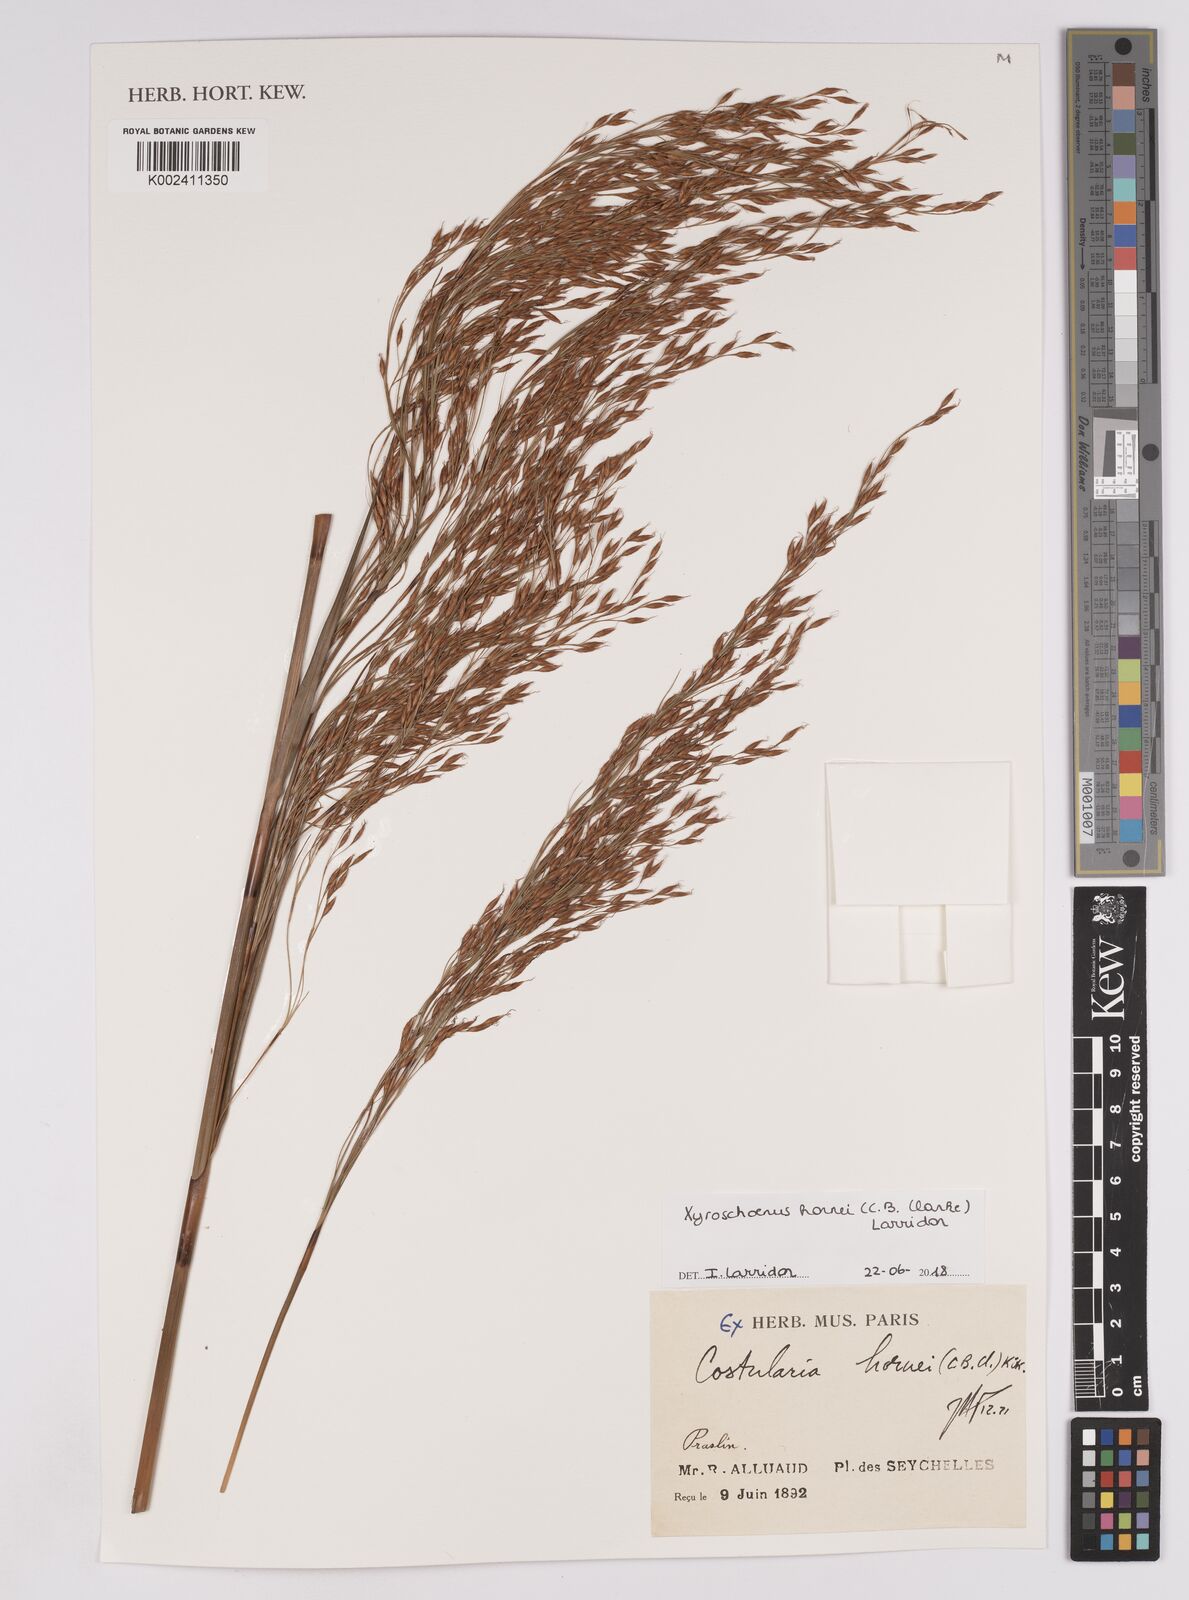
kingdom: Plantae
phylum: Tracheophyta
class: Liliopsida
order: Poales
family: Cyperaceae
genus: Xyroschoenus
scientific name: Xyroschoenus hornei
